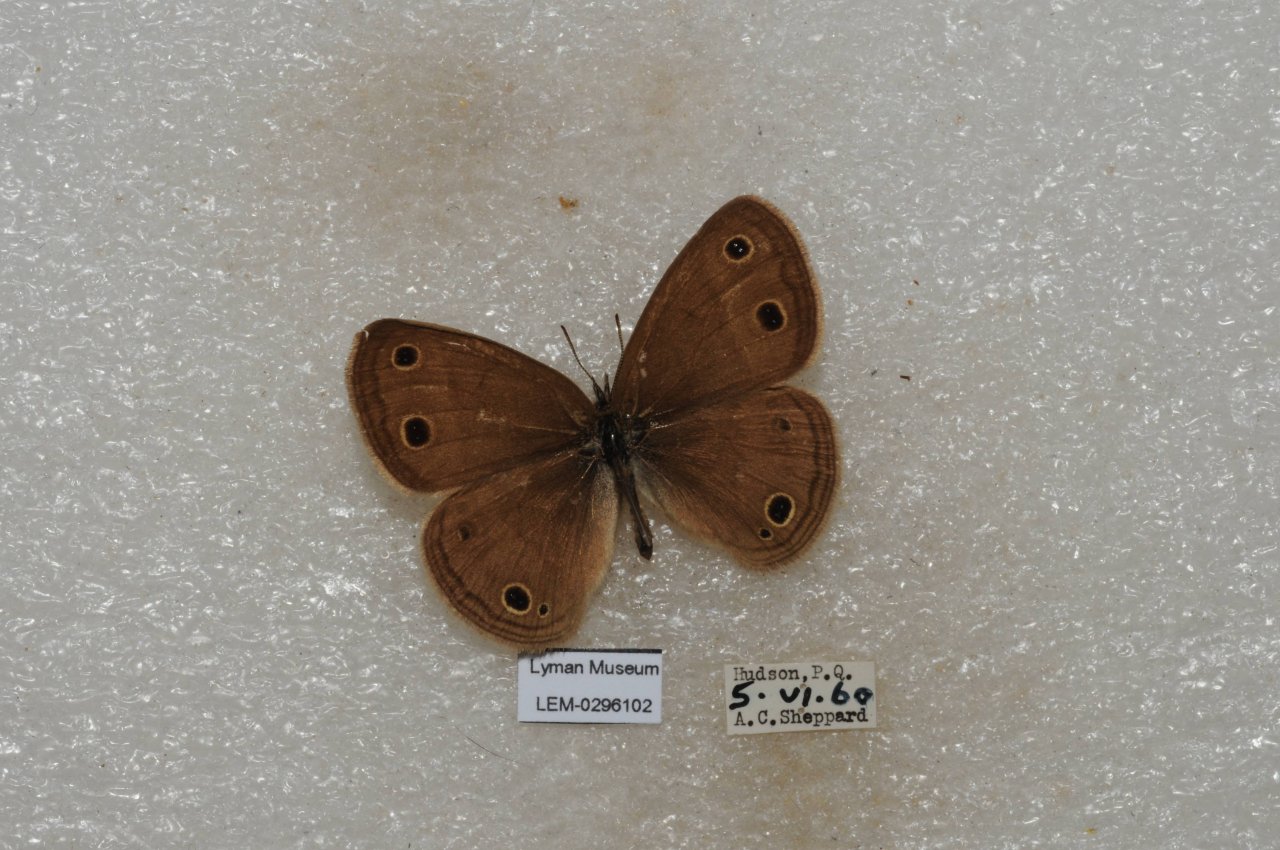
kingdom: Animalia
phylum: Arthropoda
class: Insecta
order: Lepidoptera
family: Nymphalidae
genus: Euptychia
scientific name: Euptychia cymela
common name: Little Wood Satyr
